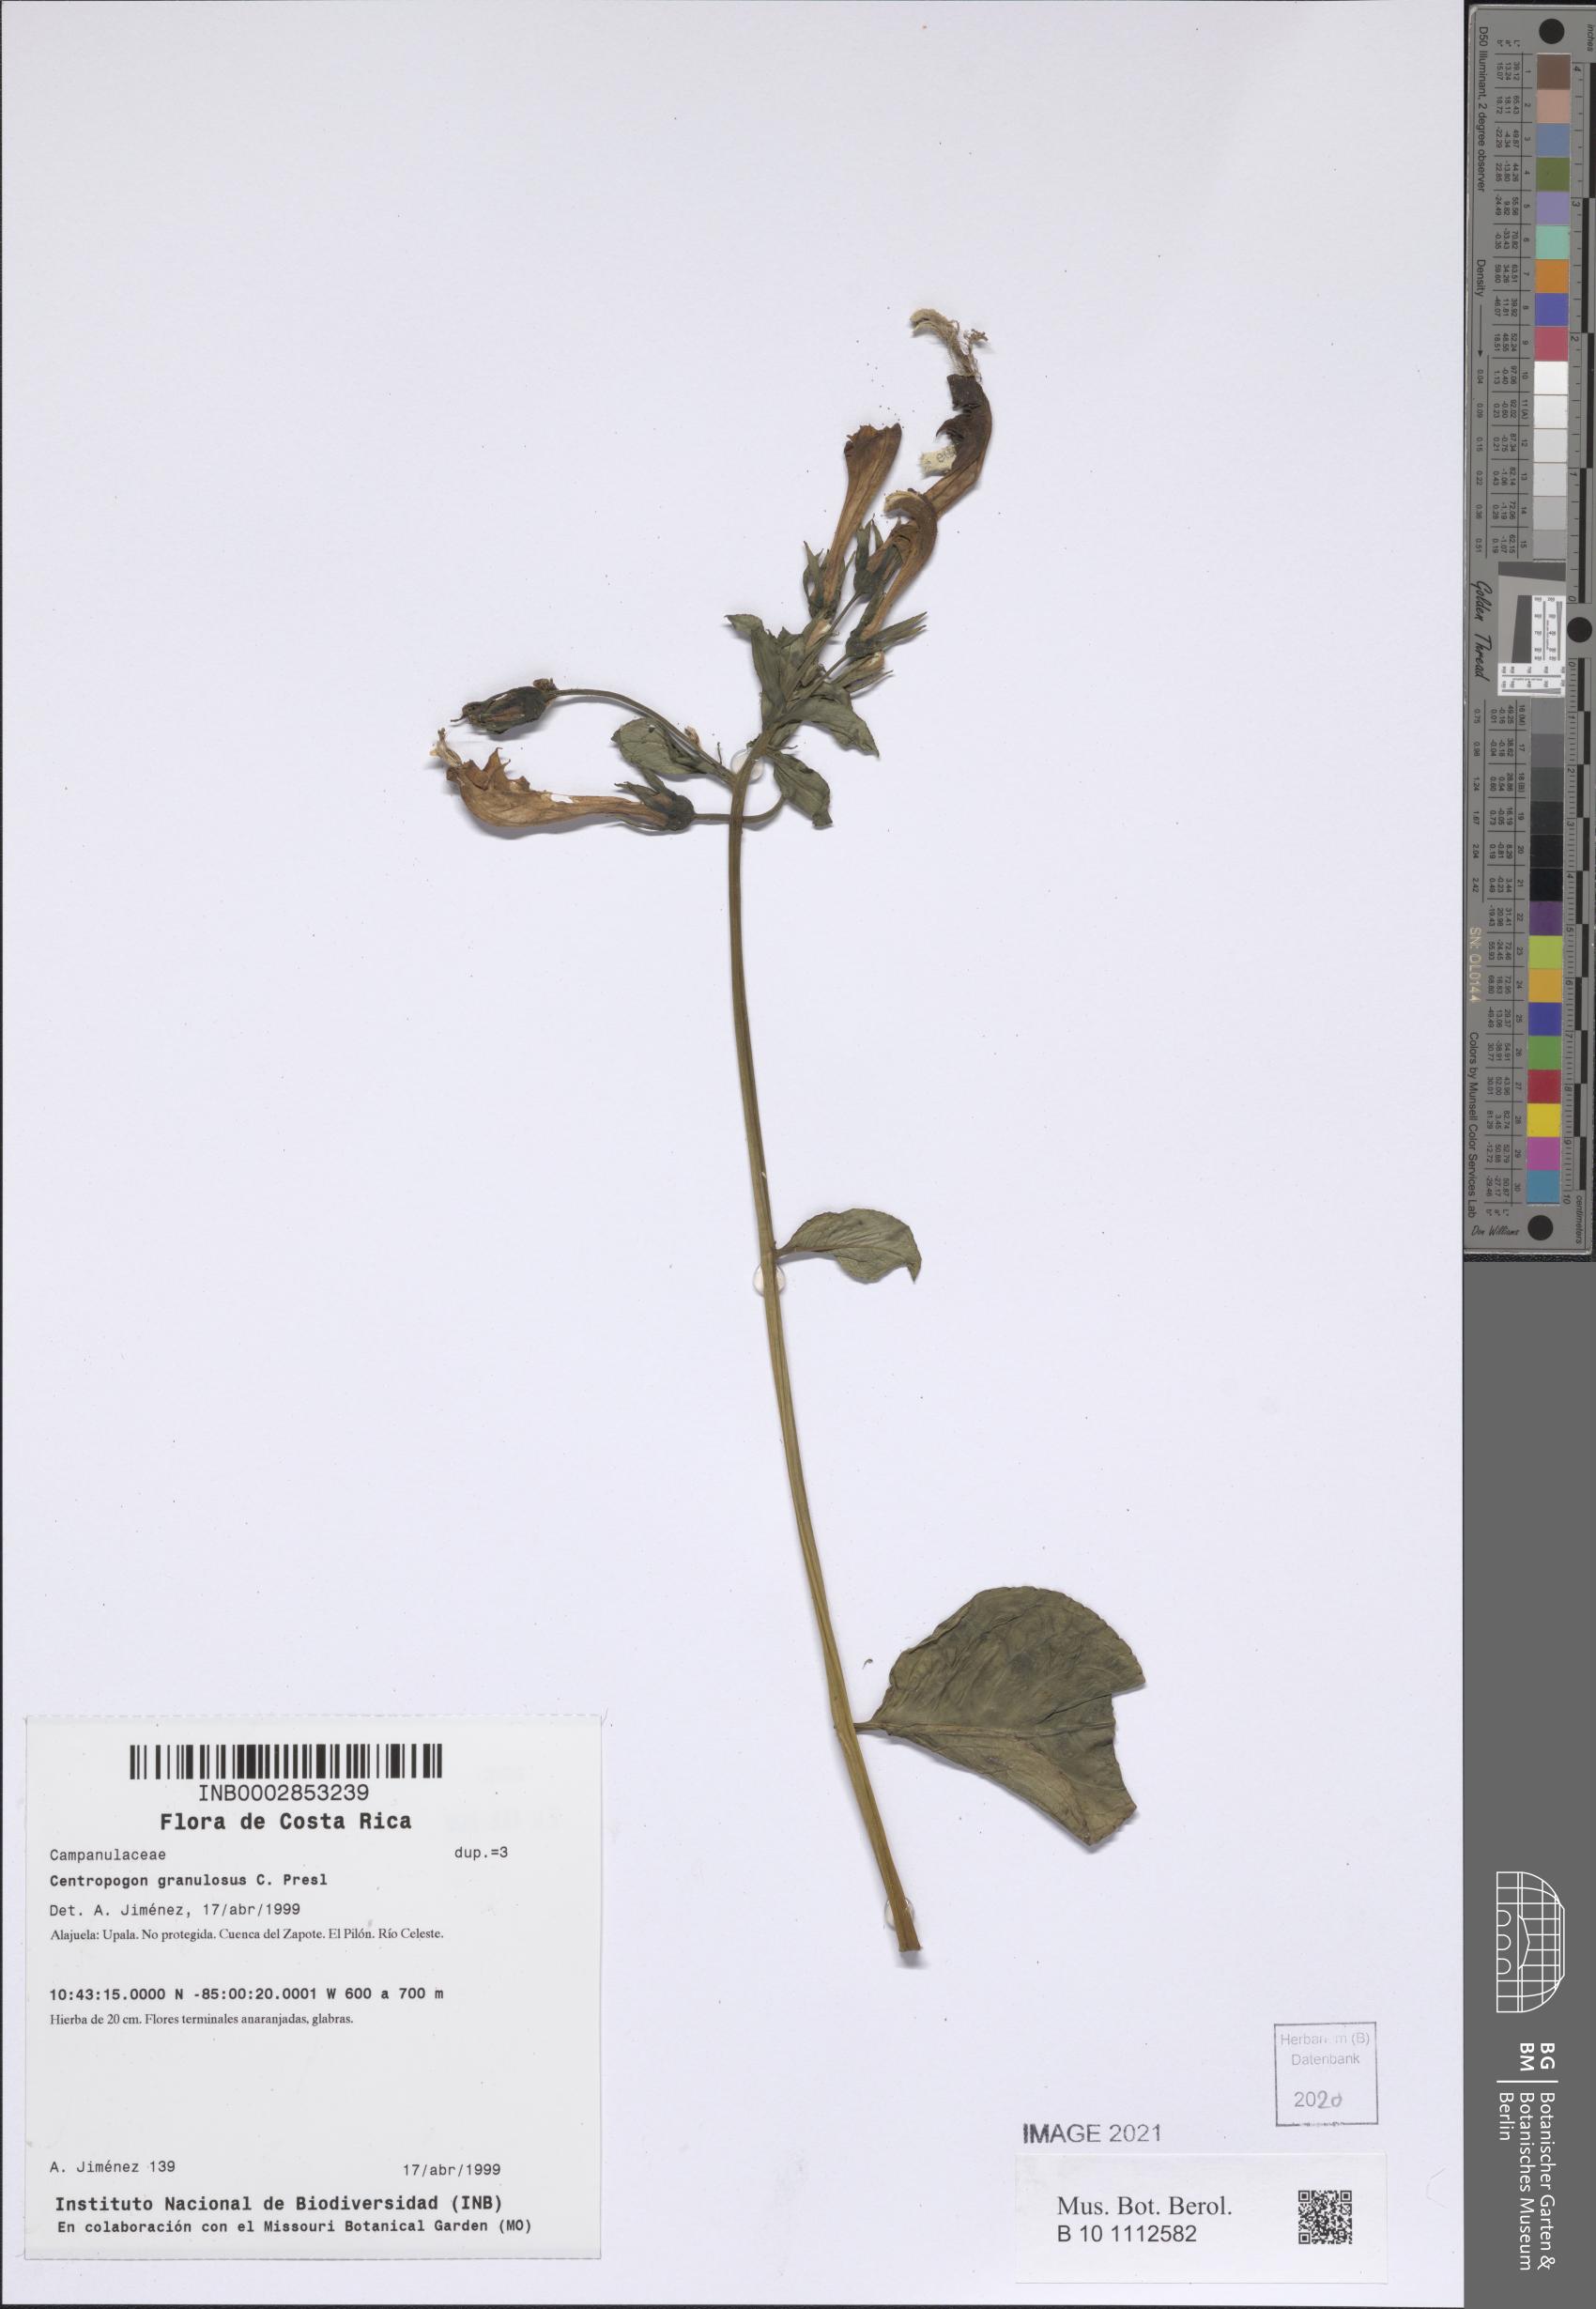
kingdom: Plantae
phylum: Tracheophyta
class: Magnoliopsida
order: Asterales
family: Campanulaceae
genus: Centropogon
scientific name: Centropogon granulosus
